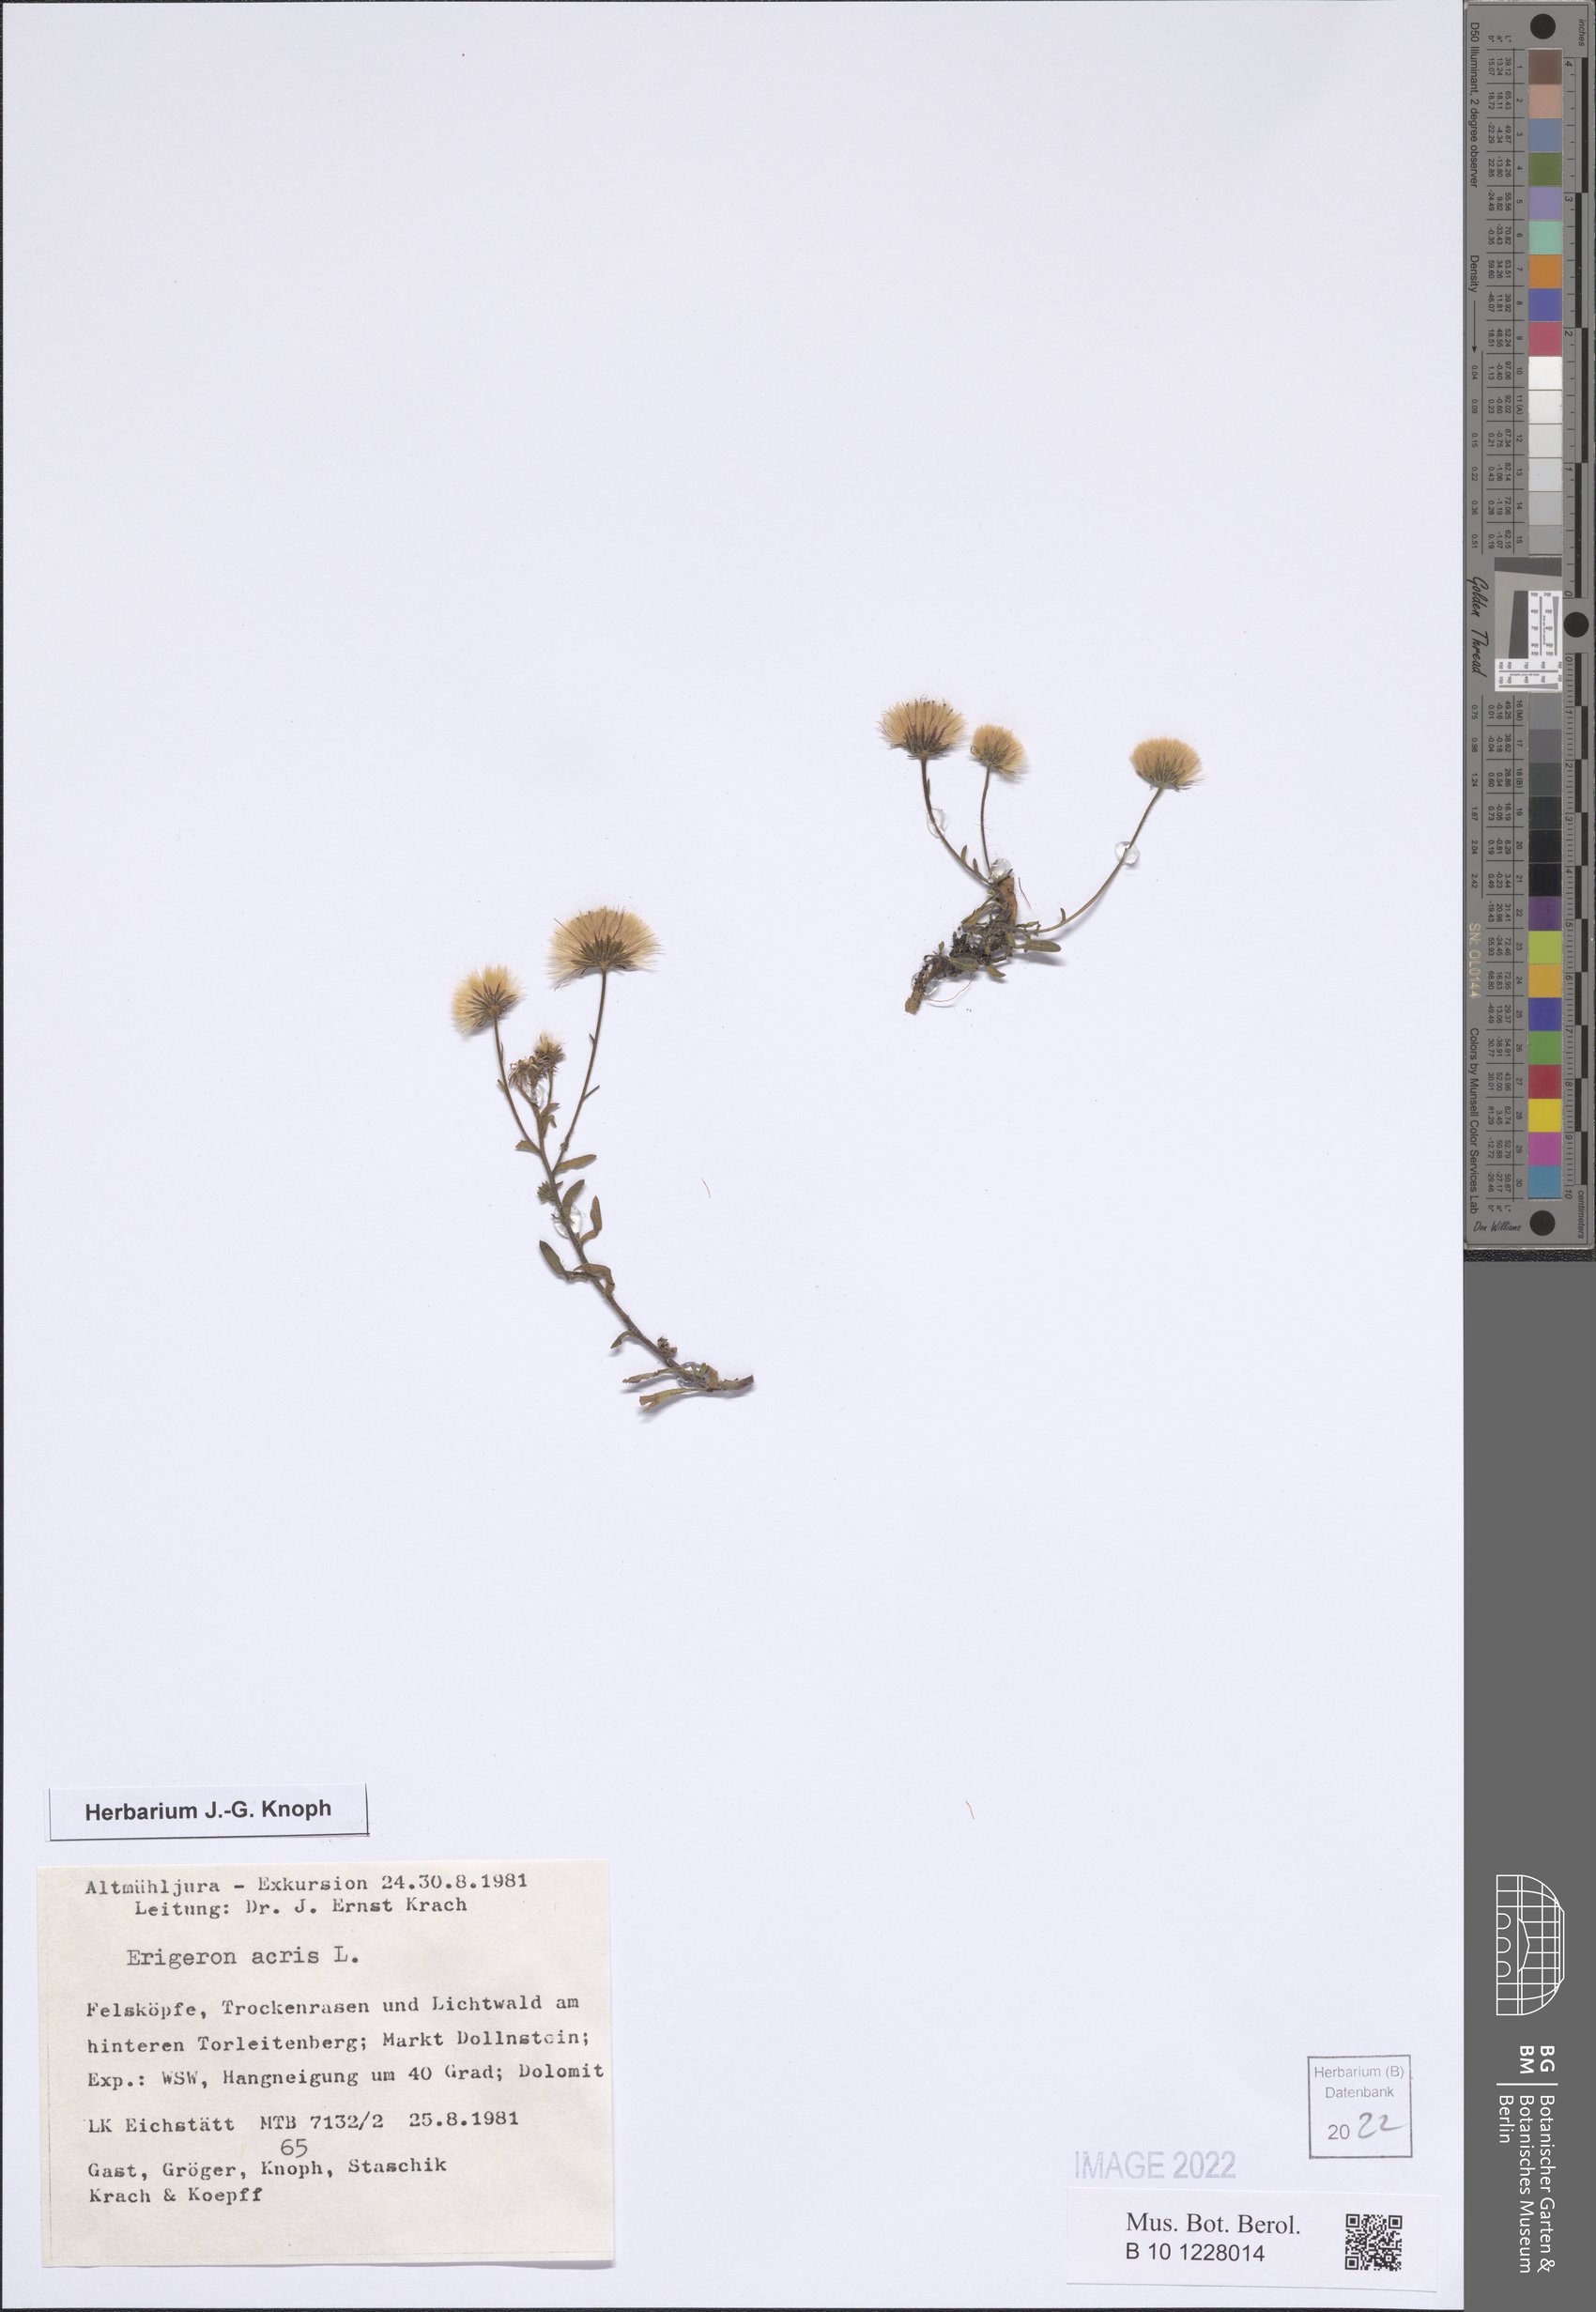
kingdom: Plantae
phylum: Tracheophyta
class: Magnoliopsida
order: Asterales
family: Asteraceae
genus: Erigeron
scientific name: Erigeron acris
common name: Blue fleabane
